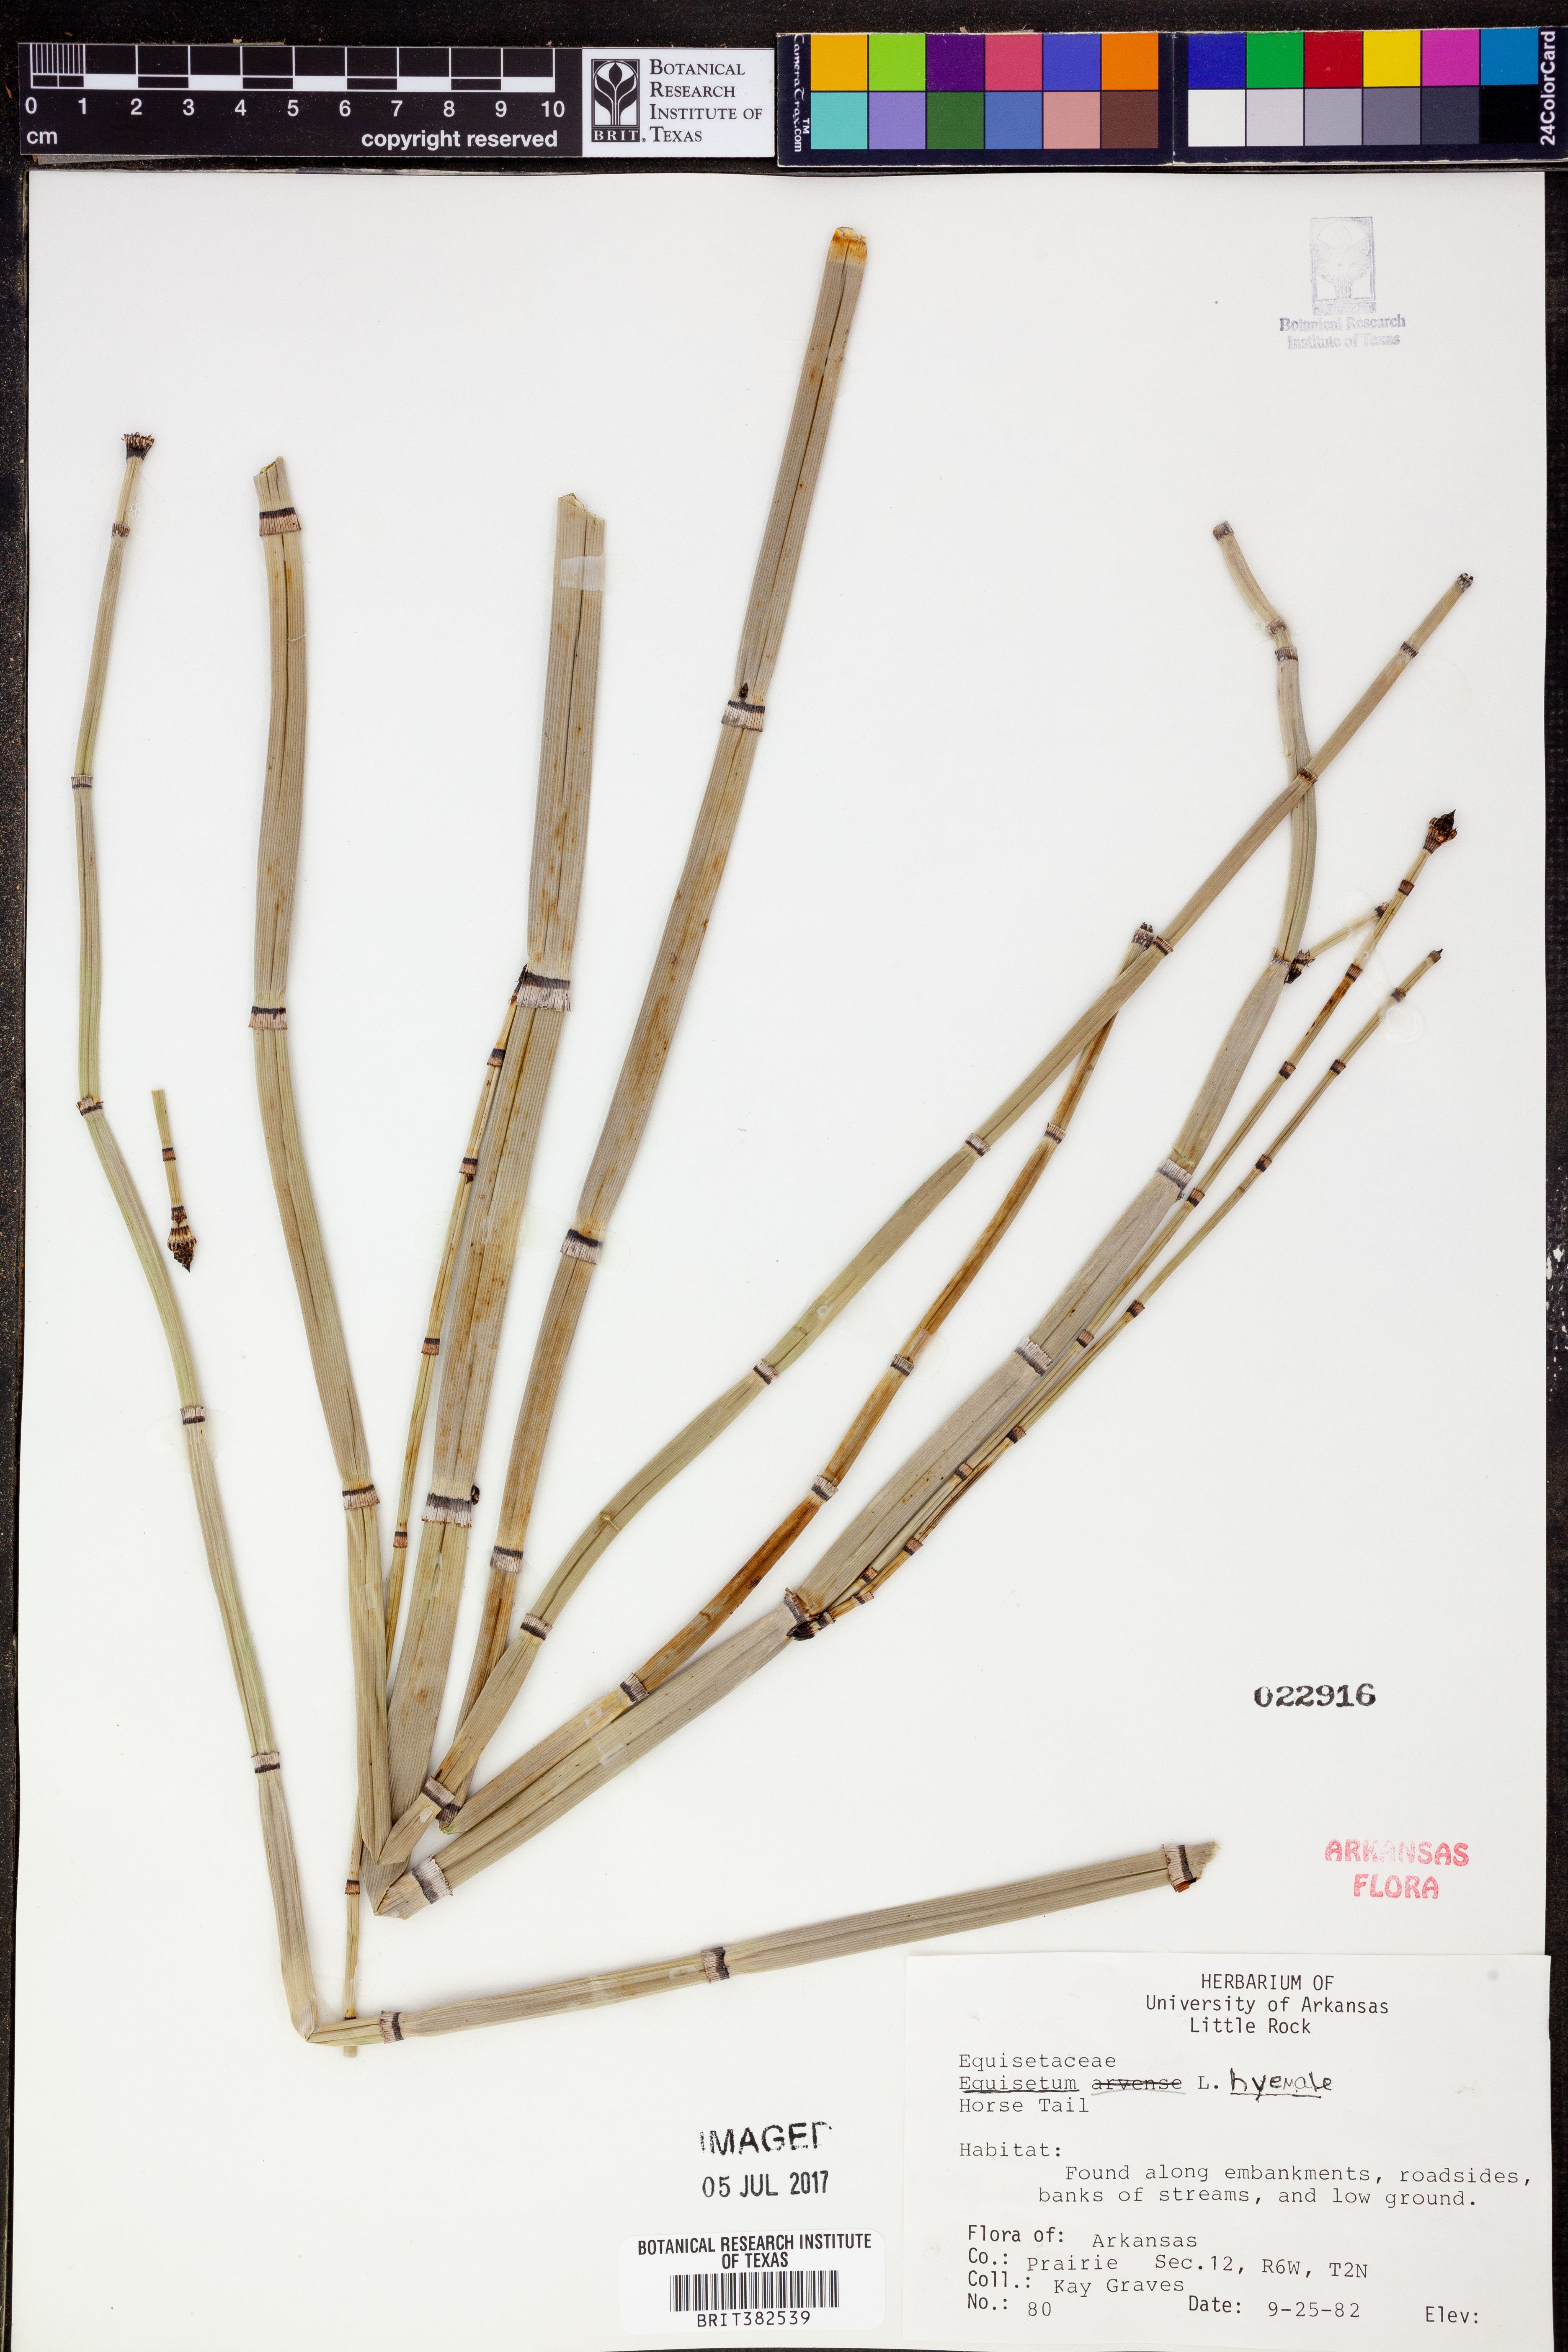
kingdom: Plantae
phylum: Tracheophyta
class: Polypodiopsida
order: Equisetales
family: Equisetaceae
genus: Equisetum
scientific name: Equisetum hyemale
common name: Rough horsetail
